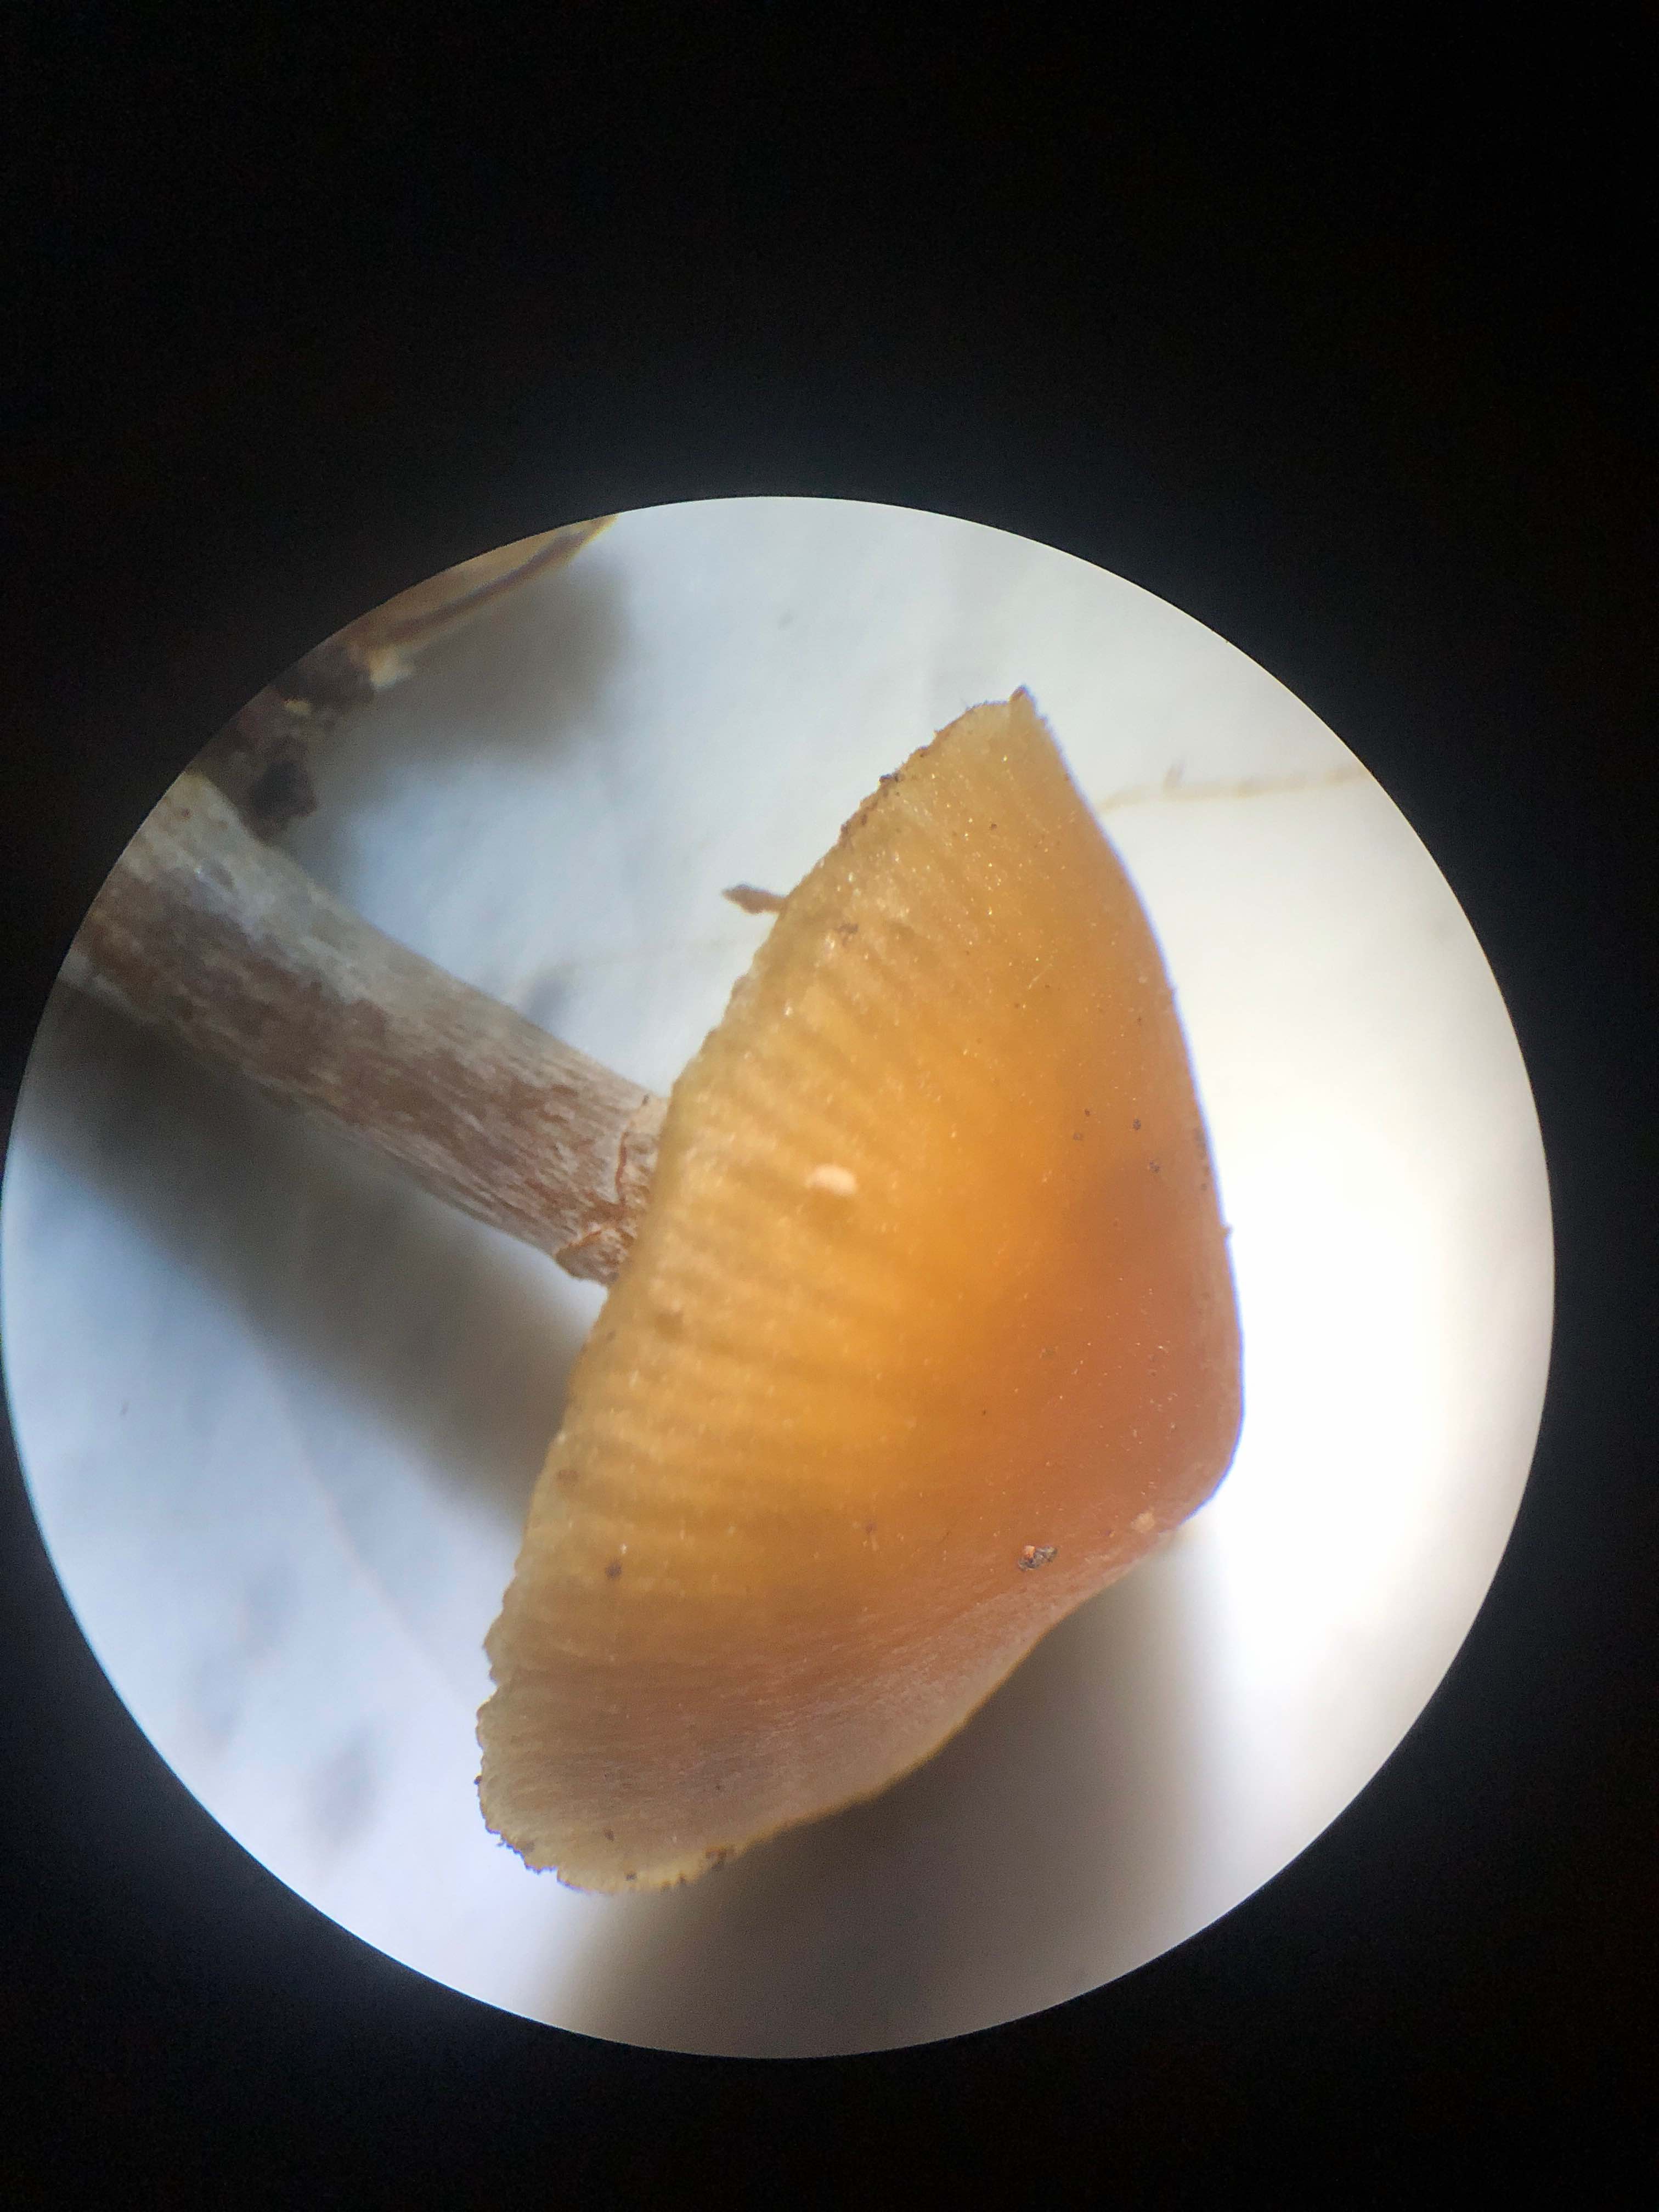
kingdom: Fungi
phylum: Basidiomycota
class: Agaricomycetes
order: Agaricales
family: Hymenogastraceae
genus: Galerina
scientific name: Galerina marginata
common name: randbæltet hjelmhat
